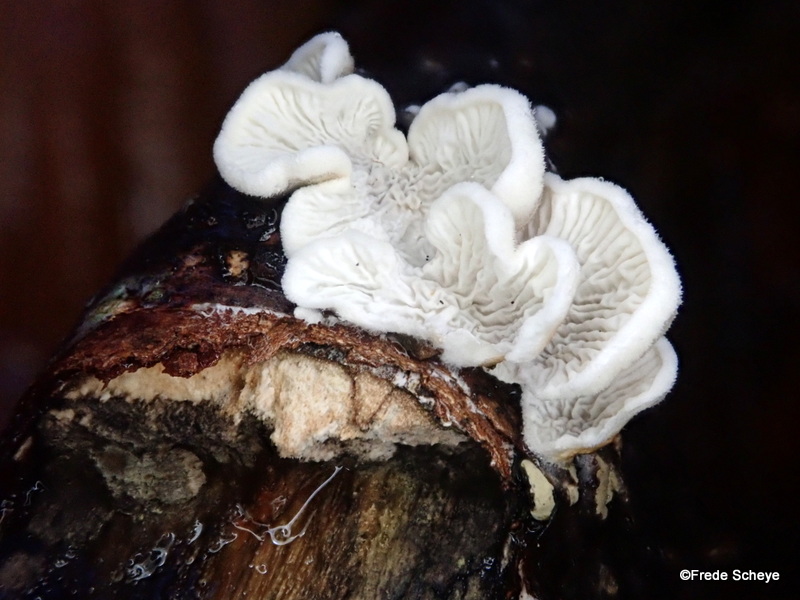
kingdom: Fungi
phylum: Basidiomycota
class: Agaricomycetes
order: Amylocorticiales
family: Amylocorticiaceae
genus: Plicaturopsis
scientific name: Plicaturopsis crispa
